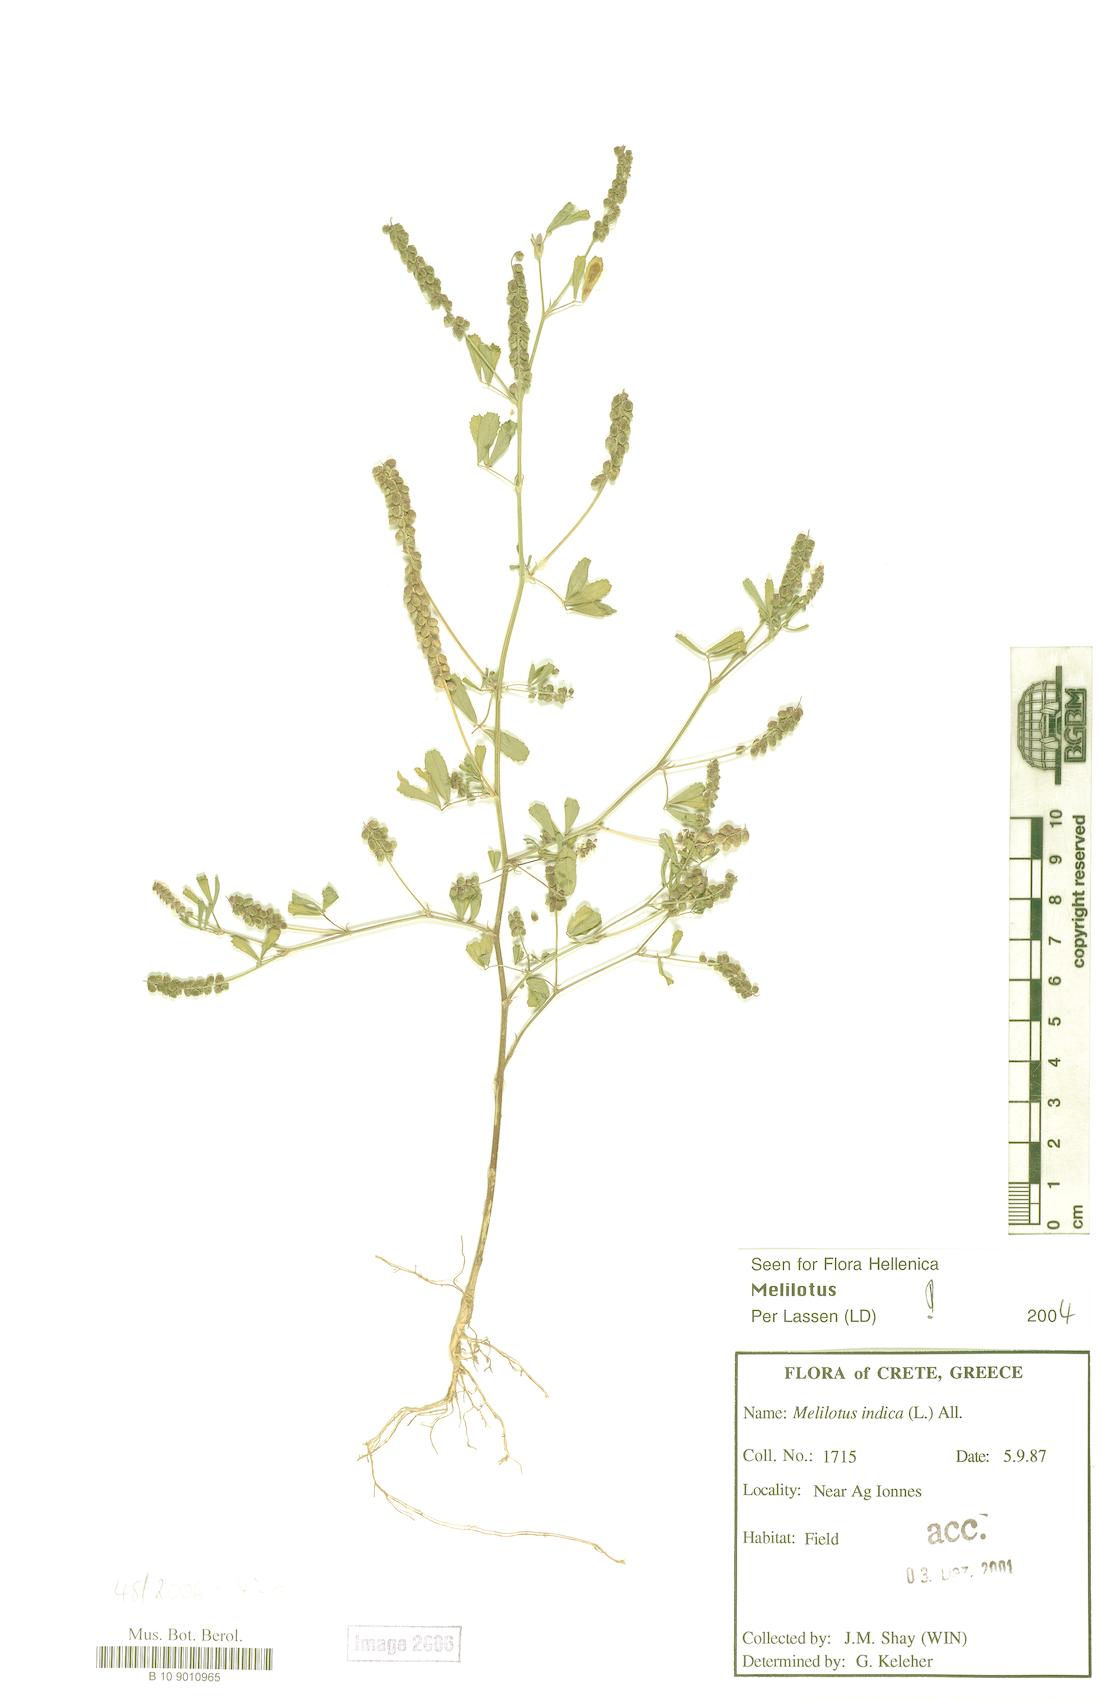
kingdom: Plantae
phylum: Tracheophyta
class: Magnoliopsida
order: Fabales
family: Fabaceae
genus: Melilotus
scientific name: Melilotus
